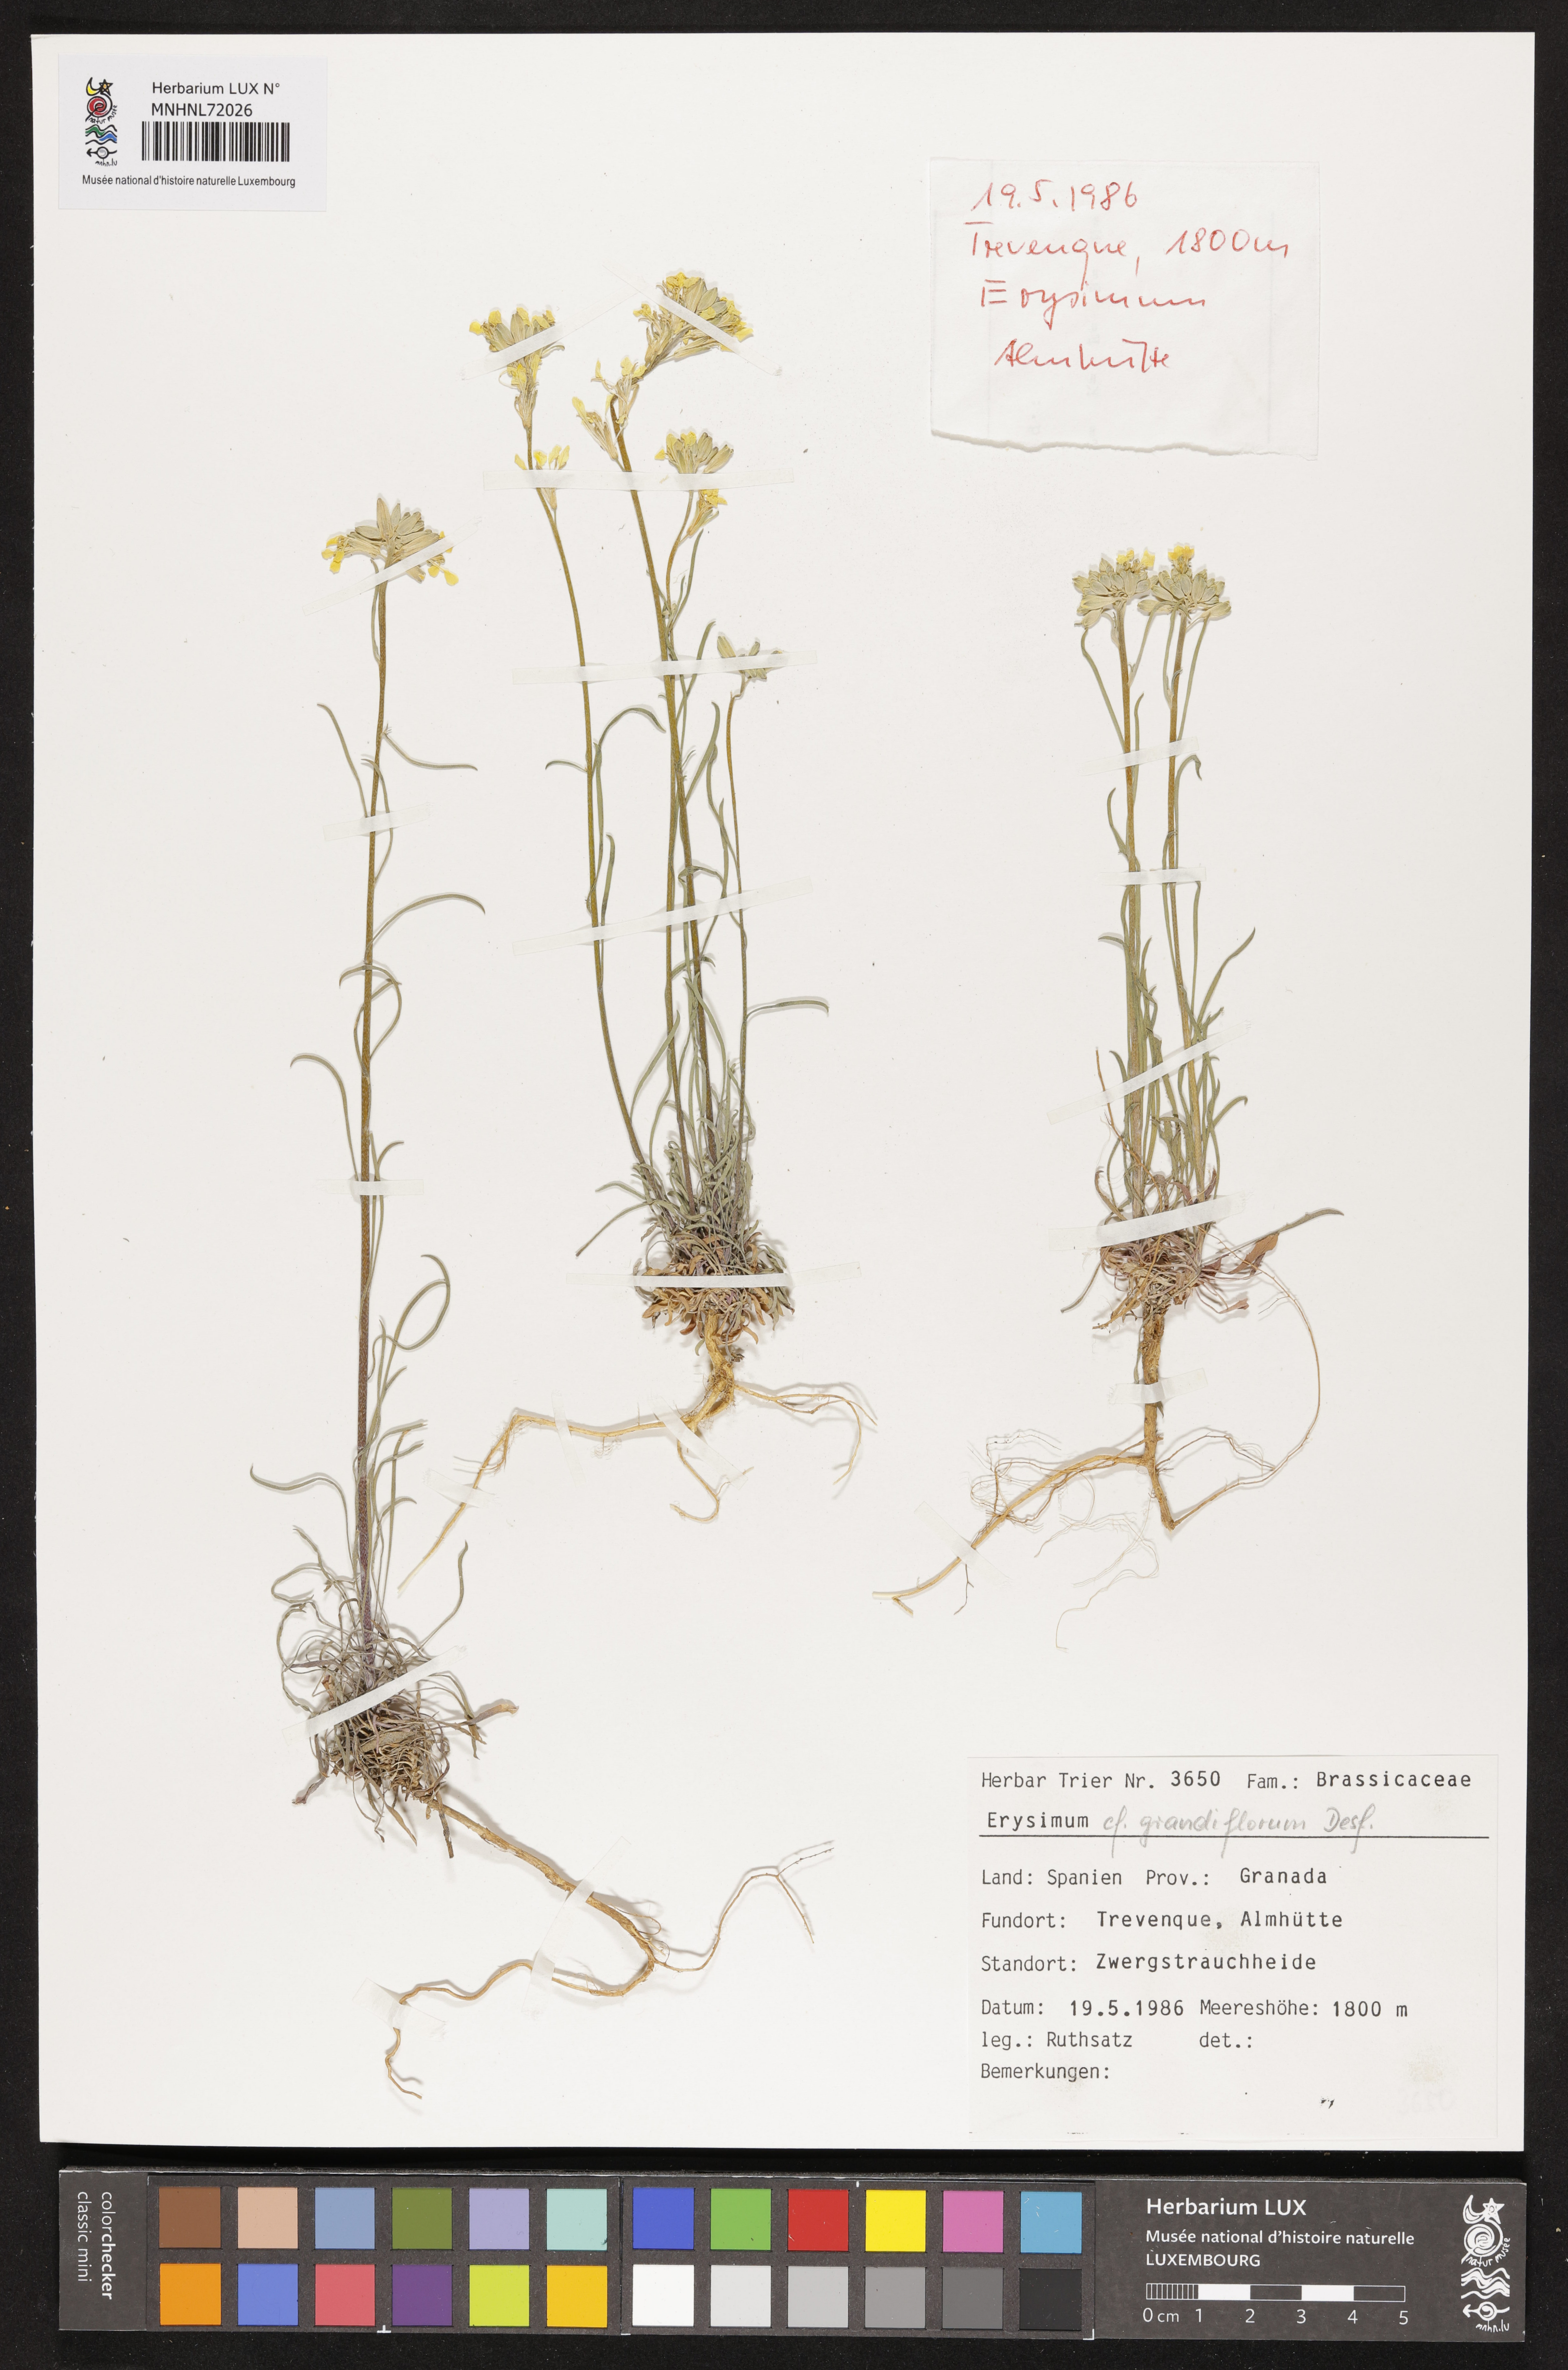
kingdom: Plantae
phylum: Tracheophyta
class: Magnoliopsida
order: Brassicales
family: Brassicaceae
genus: Erysimum
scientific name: Erysimum duriaei
